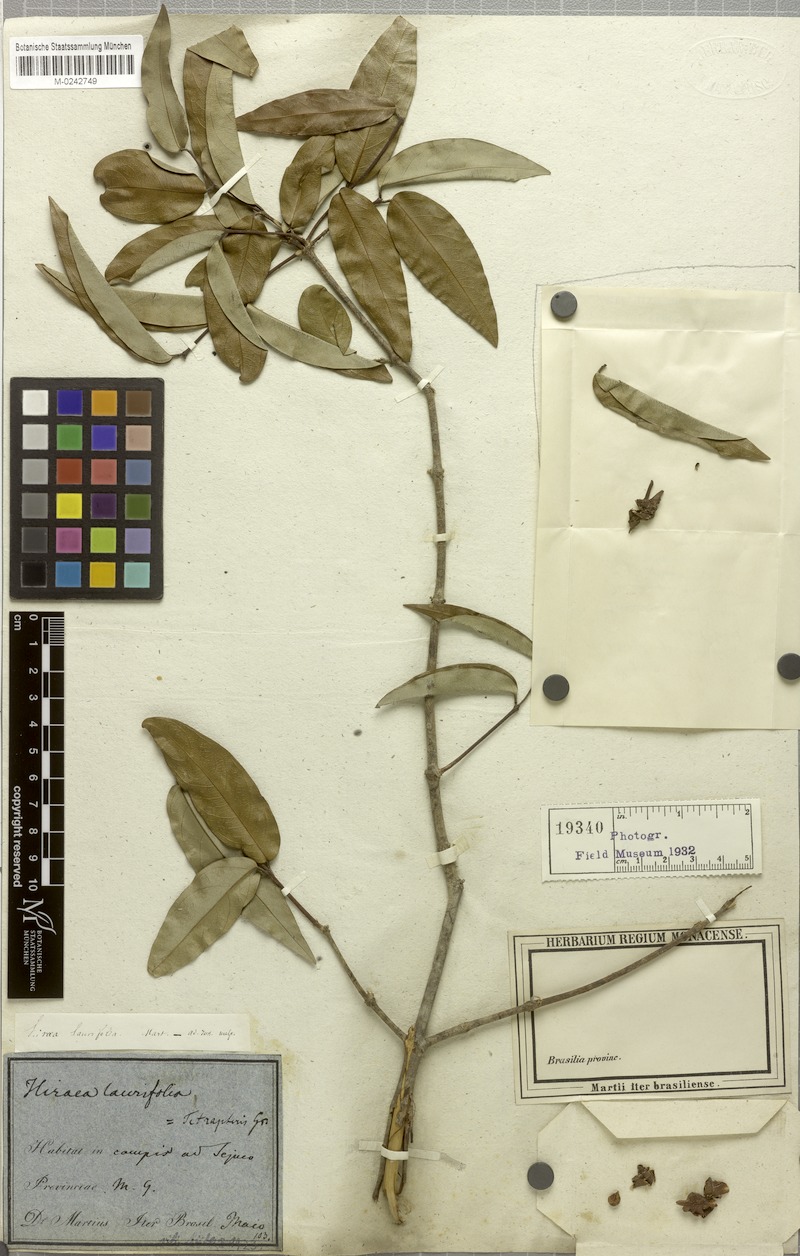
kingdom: Plantae
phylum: Tracheophyta
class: Magnoliopsida
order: Malpighiales
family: Malpighiaceae
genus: Niedenzuella
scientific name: Niedenzuella sericea
